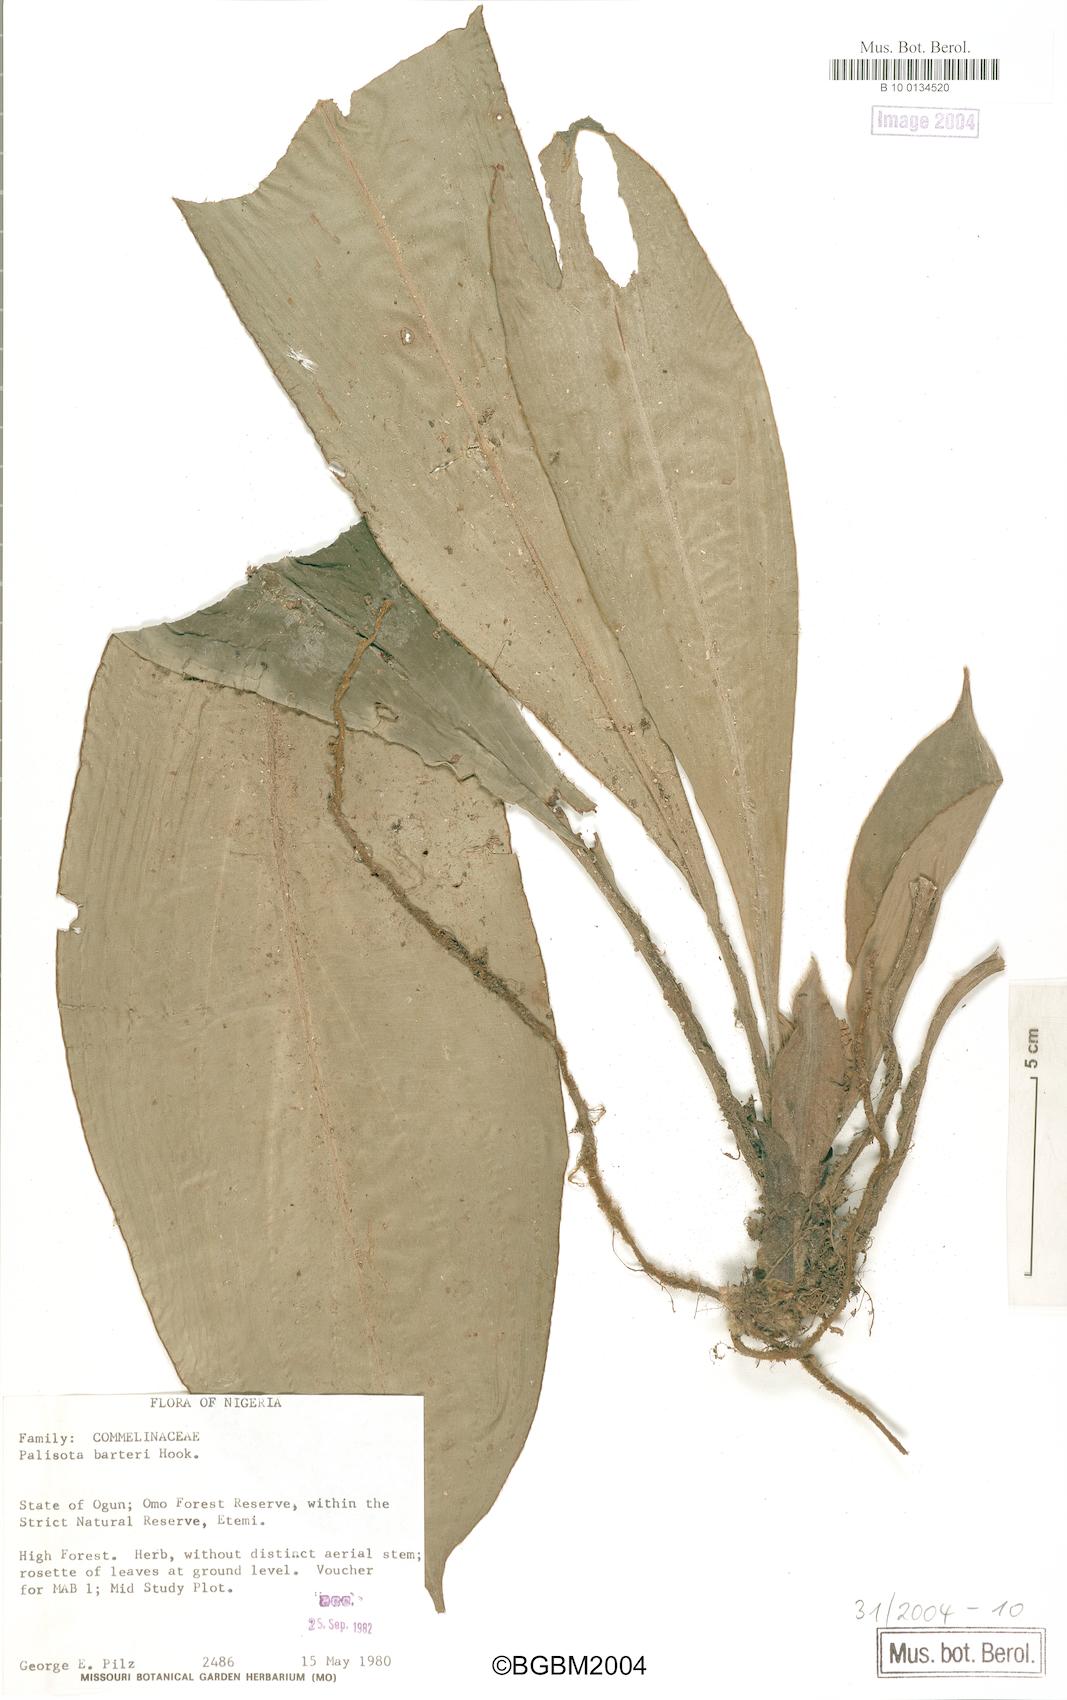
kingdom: Plantae
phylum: Tracheophyta
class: Liliopsida
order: Commelinales
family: Commelinaceae
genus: Palisota
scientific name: Palisota barteri
